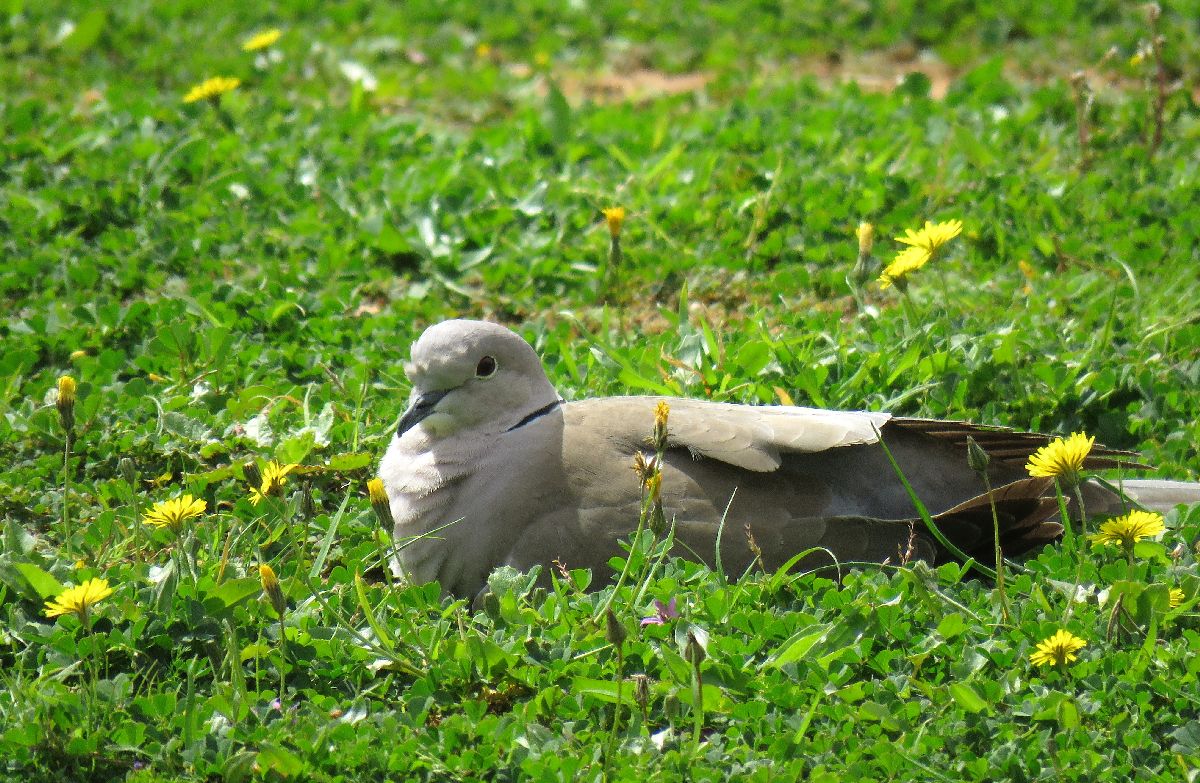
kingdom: Animalia
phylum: Chordata
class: Aves
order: Columbiformes
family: Columbidae
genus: Streptopelia
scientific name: Streptopelia decaocto
